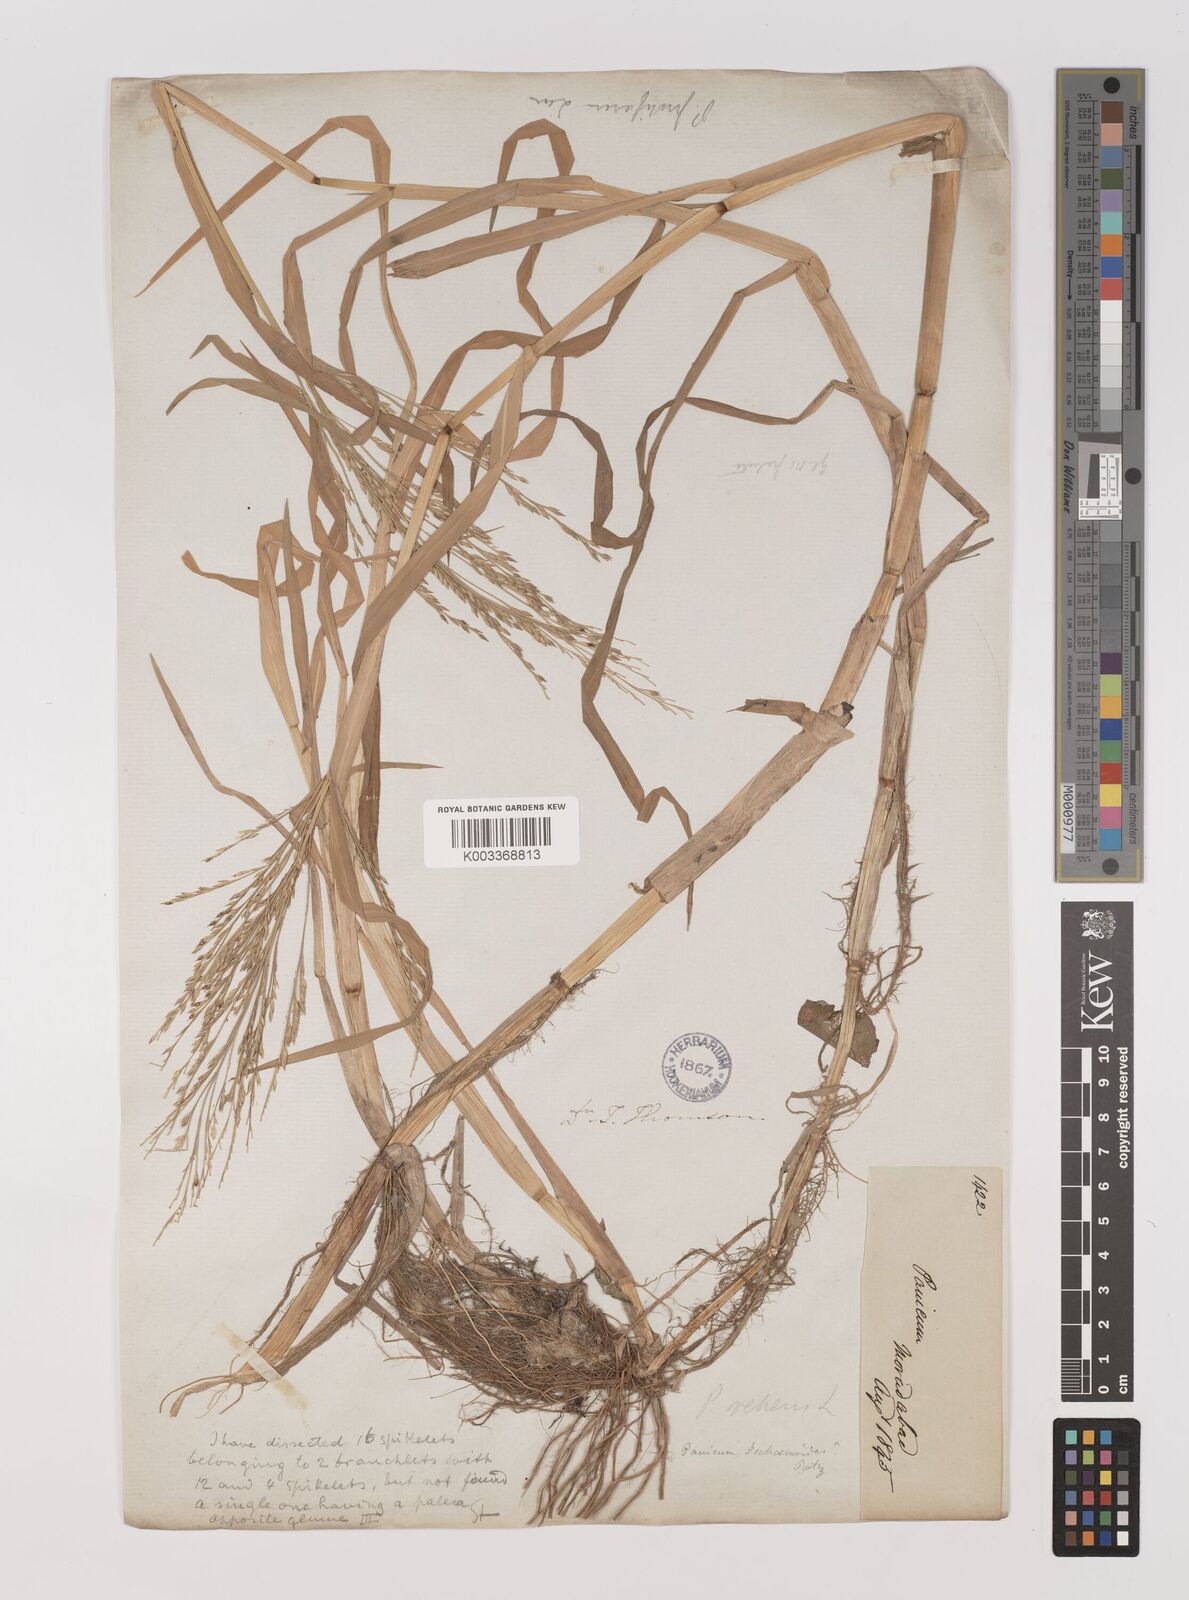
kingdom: Plantae
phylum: Tracheophyta
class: Liliopsida
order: Poales
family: Poaceae
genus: Louisiella
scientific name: Louisiella paludosa
